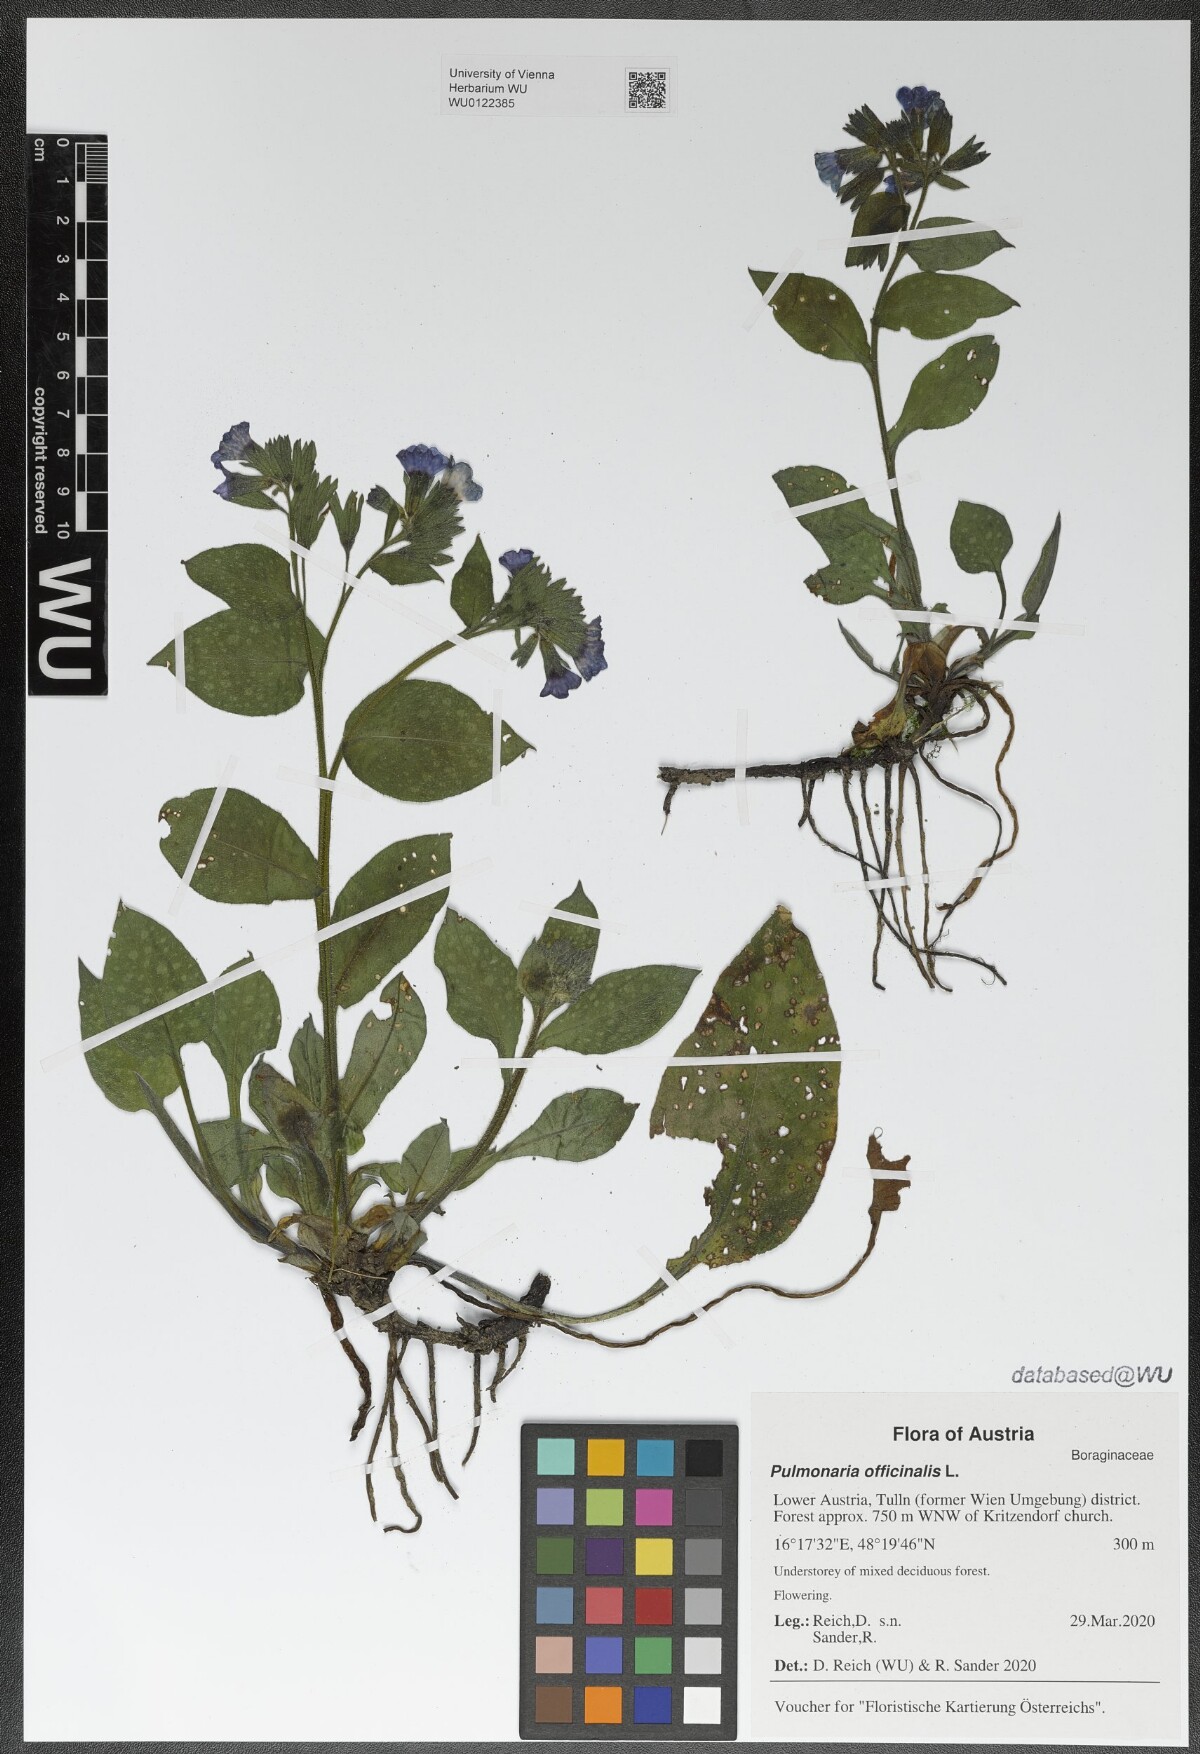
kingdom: Plantae
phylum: Tracheophyta
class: Magnoliopsida
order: Boraginales
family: Boraginaceae
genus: Pulmonaria
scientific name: Pulmonaria officinalis
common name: Lungwort
